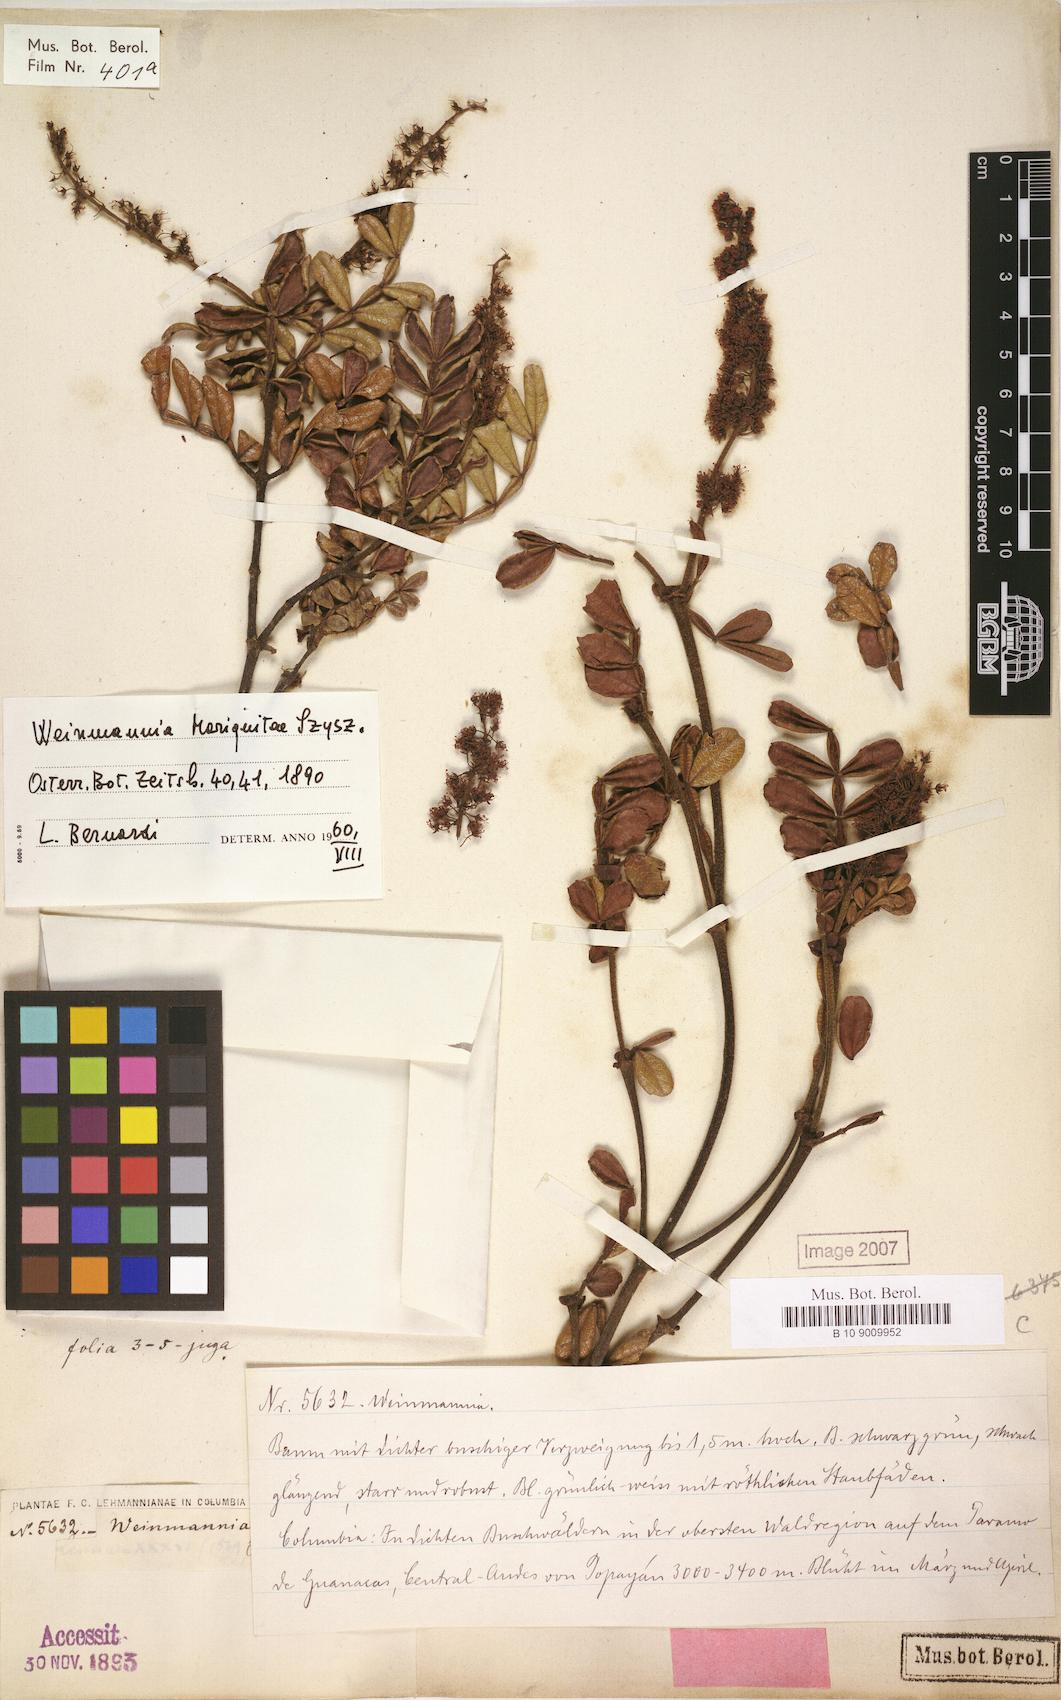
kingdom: Plantae
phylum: Tracheophyta
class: Magnoliopsida
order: Oxalidales
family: Cunoniaceae
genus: Weinmannia
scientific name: Weinmannia mariquitae
